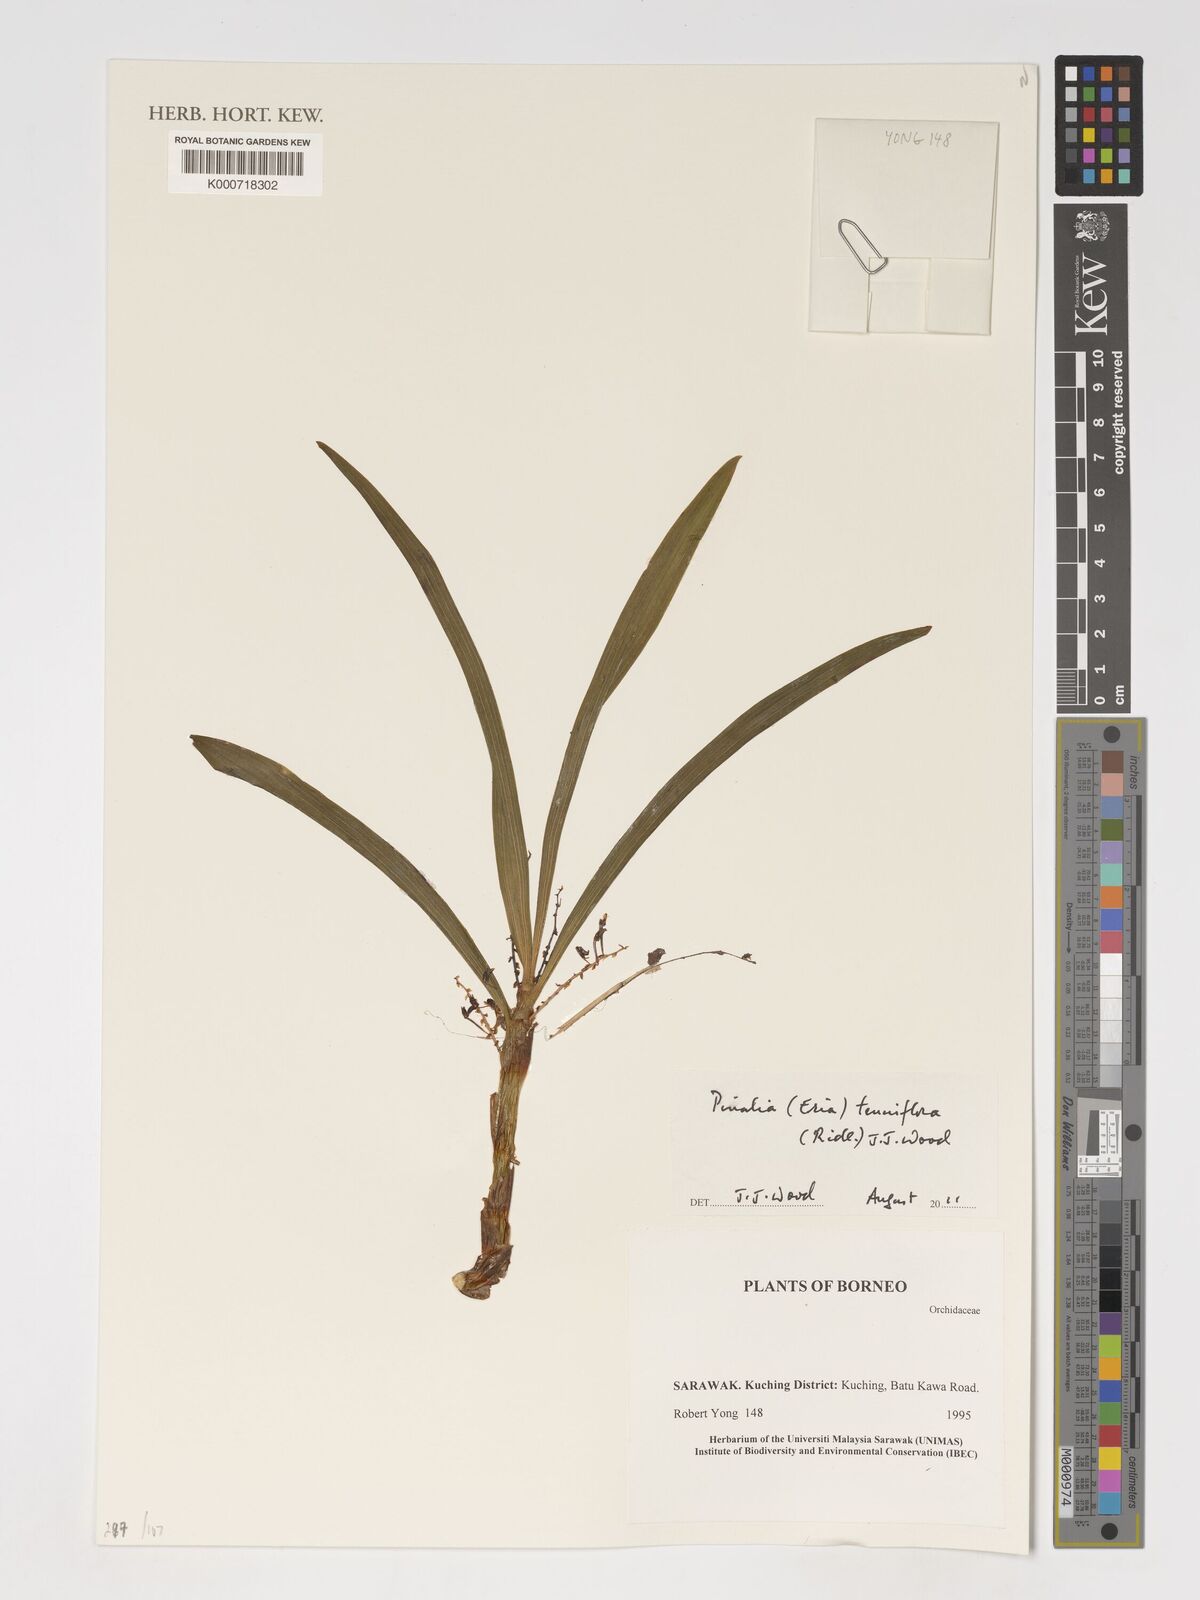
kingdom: Plantae
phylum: Tracheophyta
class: Liliopsida
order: Asparagales
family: Orchidaceae
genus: Pinalia
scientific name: Pinalia tenuiflora
